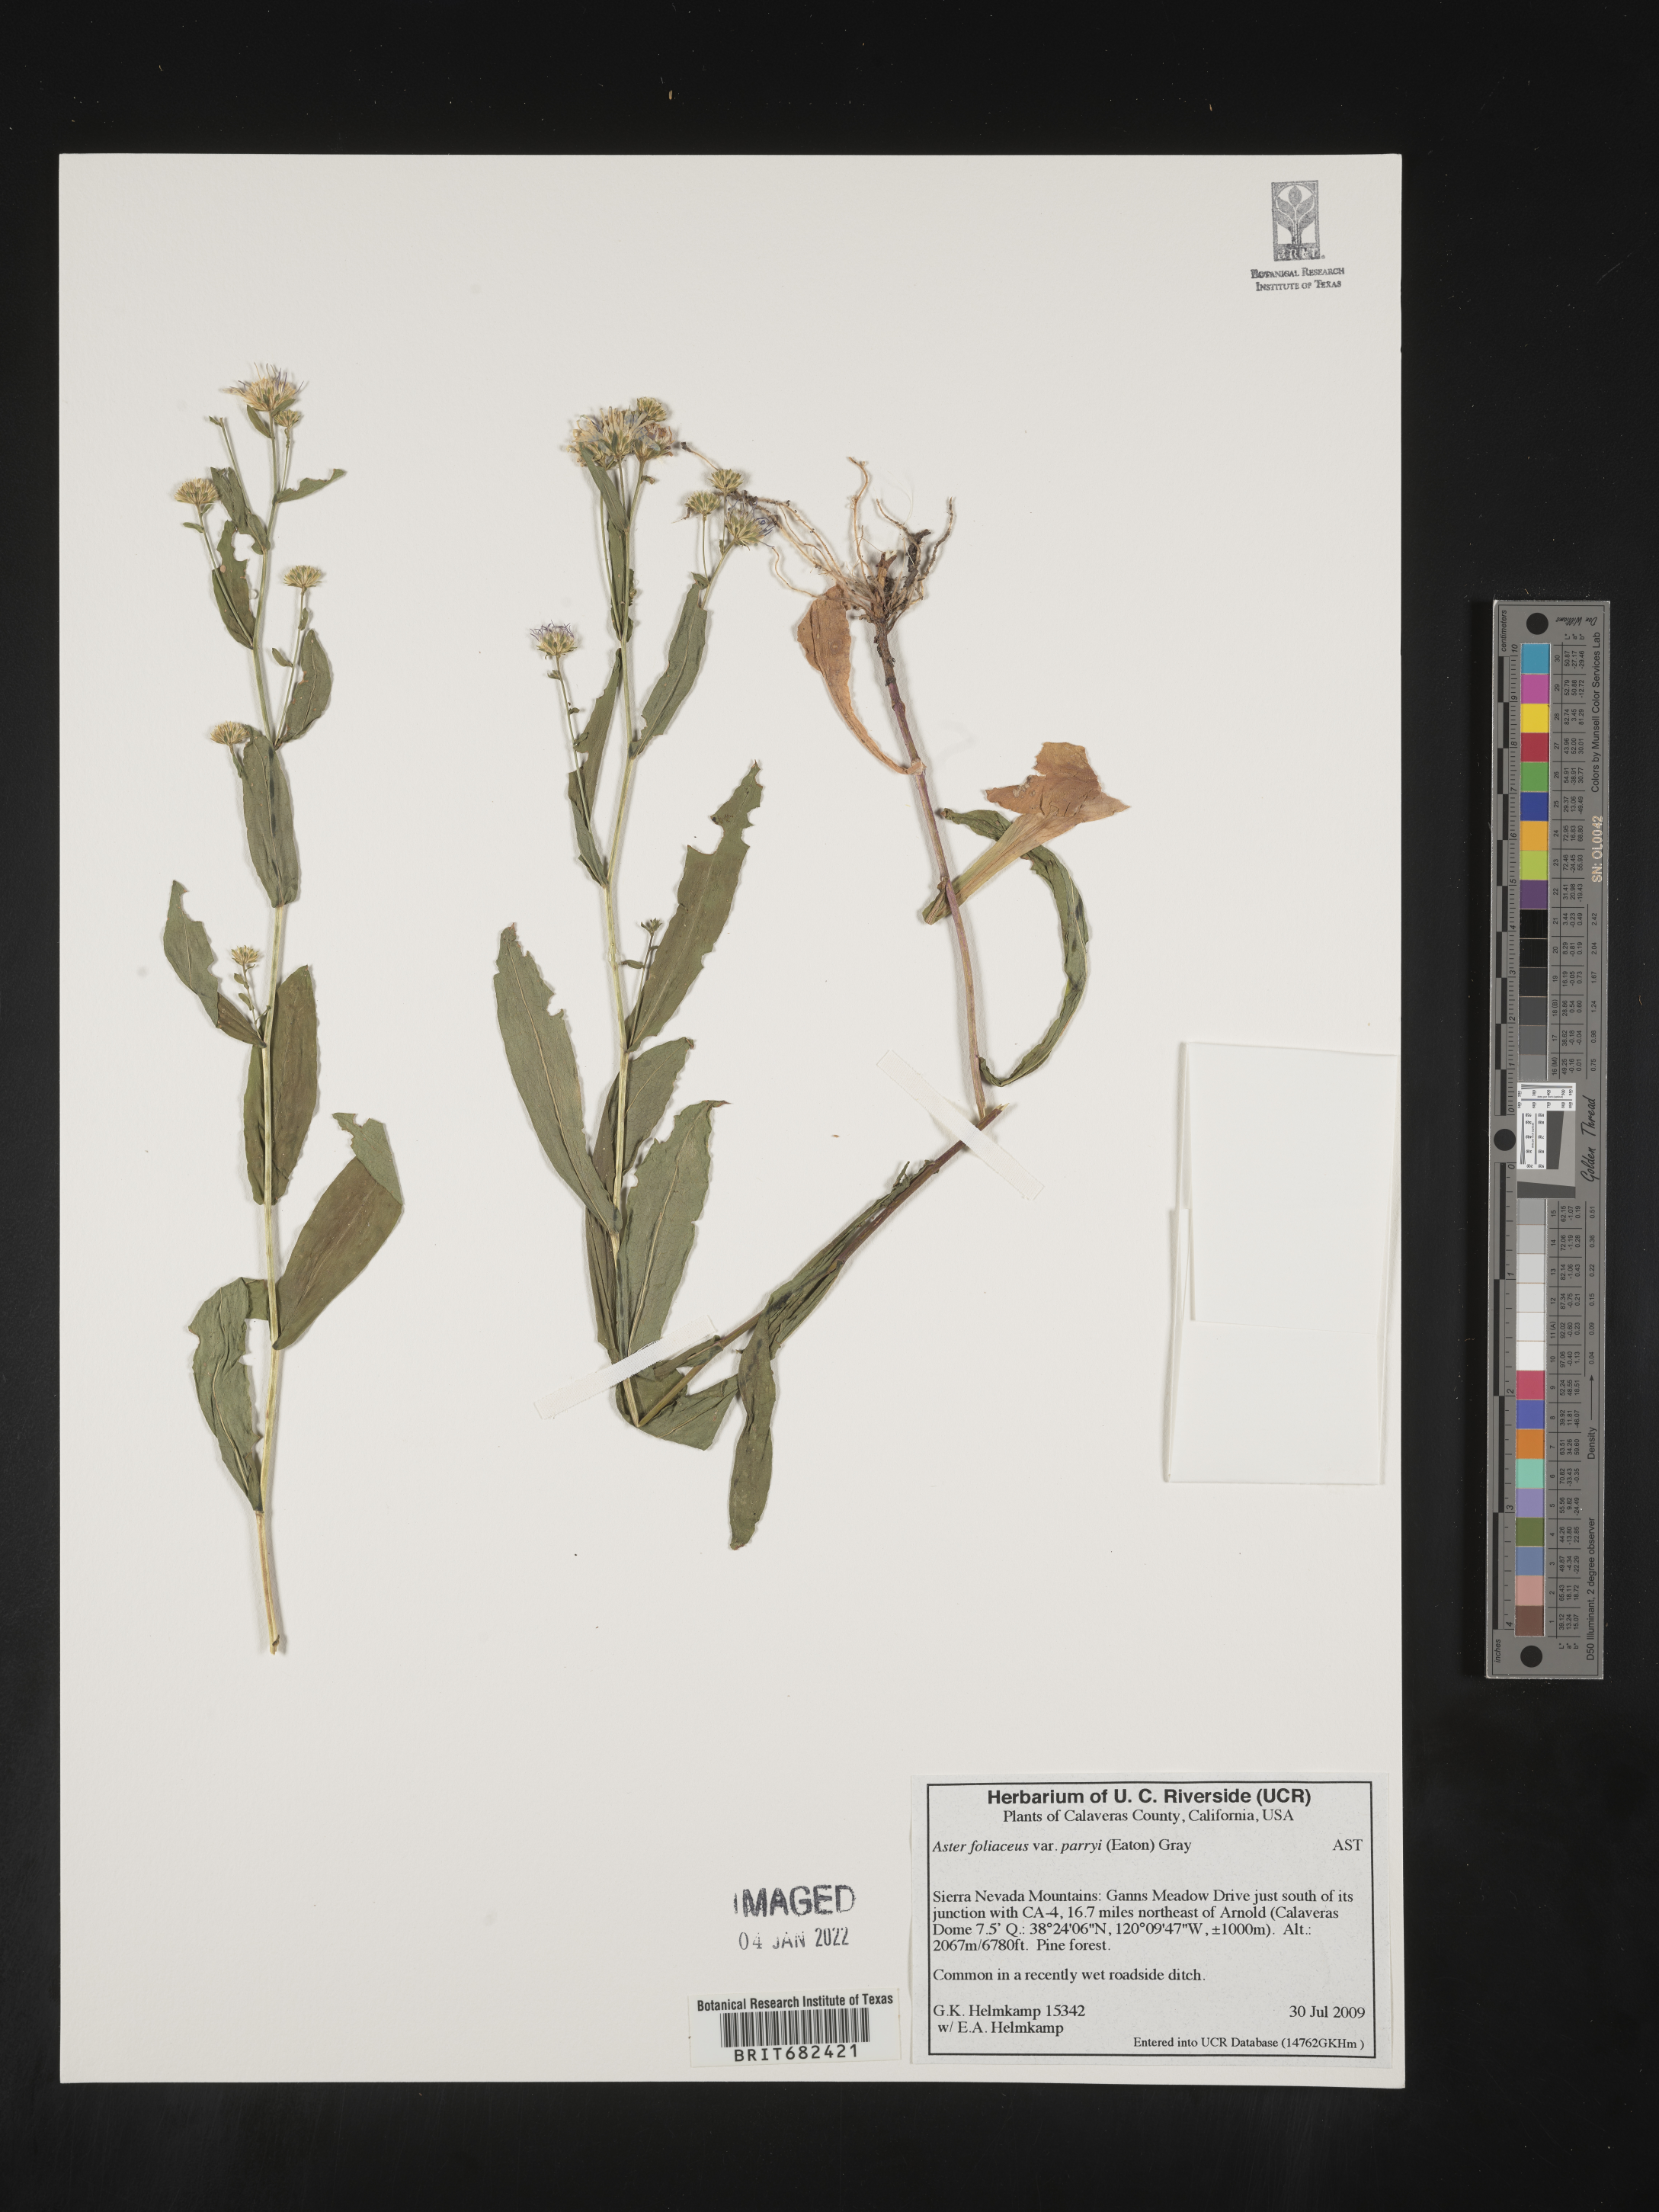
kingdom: Plantae
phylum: Tracheophyta
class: Magnoliopsida
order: Asterales
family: Asteraceae
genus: Aster
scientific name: Aster
